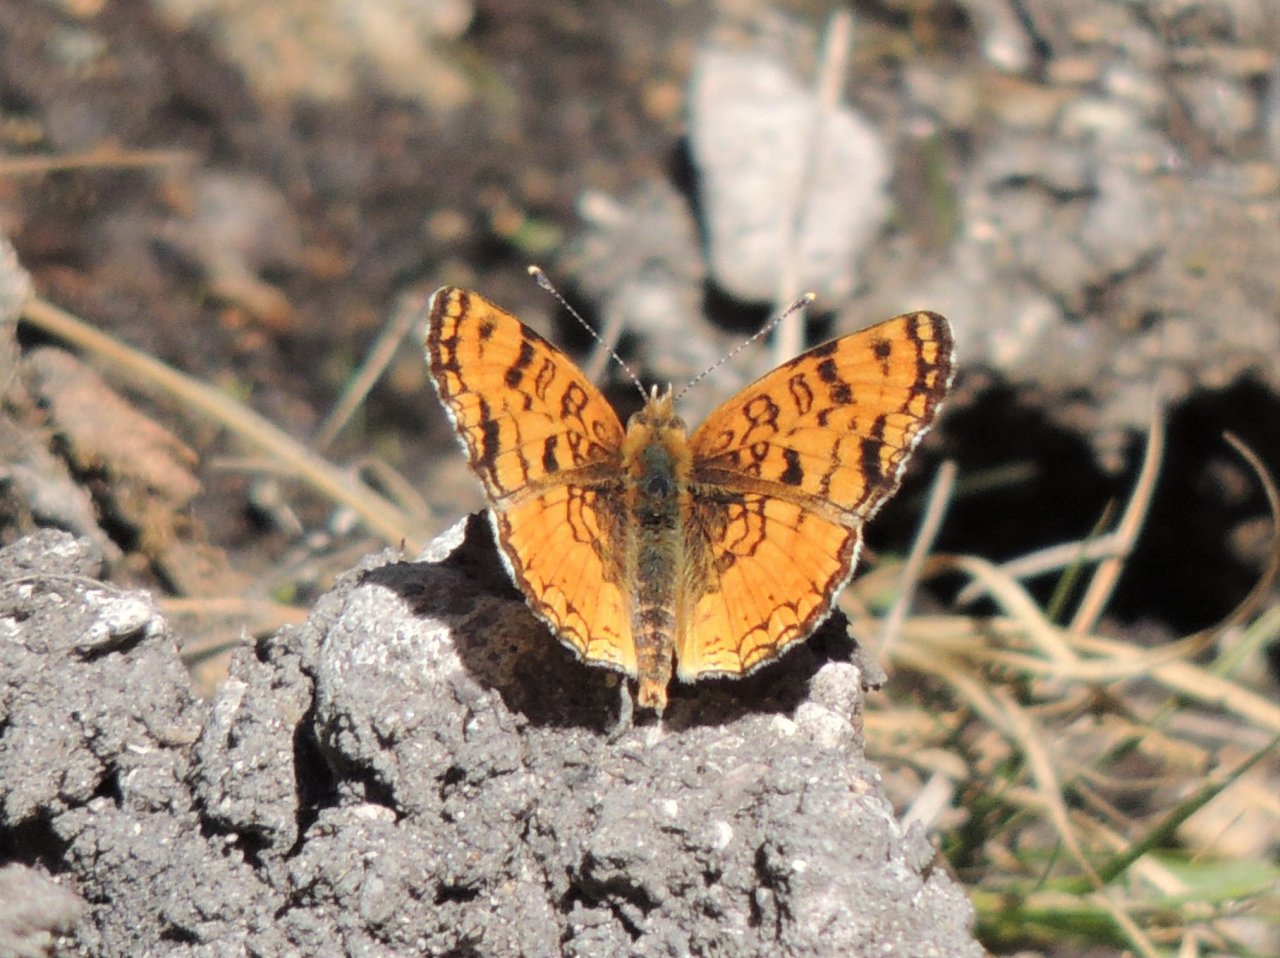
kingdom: Animalia
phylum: Arthropoda
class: Insecta
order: Lepidoptera
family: Nymphalidae
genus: Eresia
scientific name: Eresia aveyrona
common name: Mylitta Crescent
